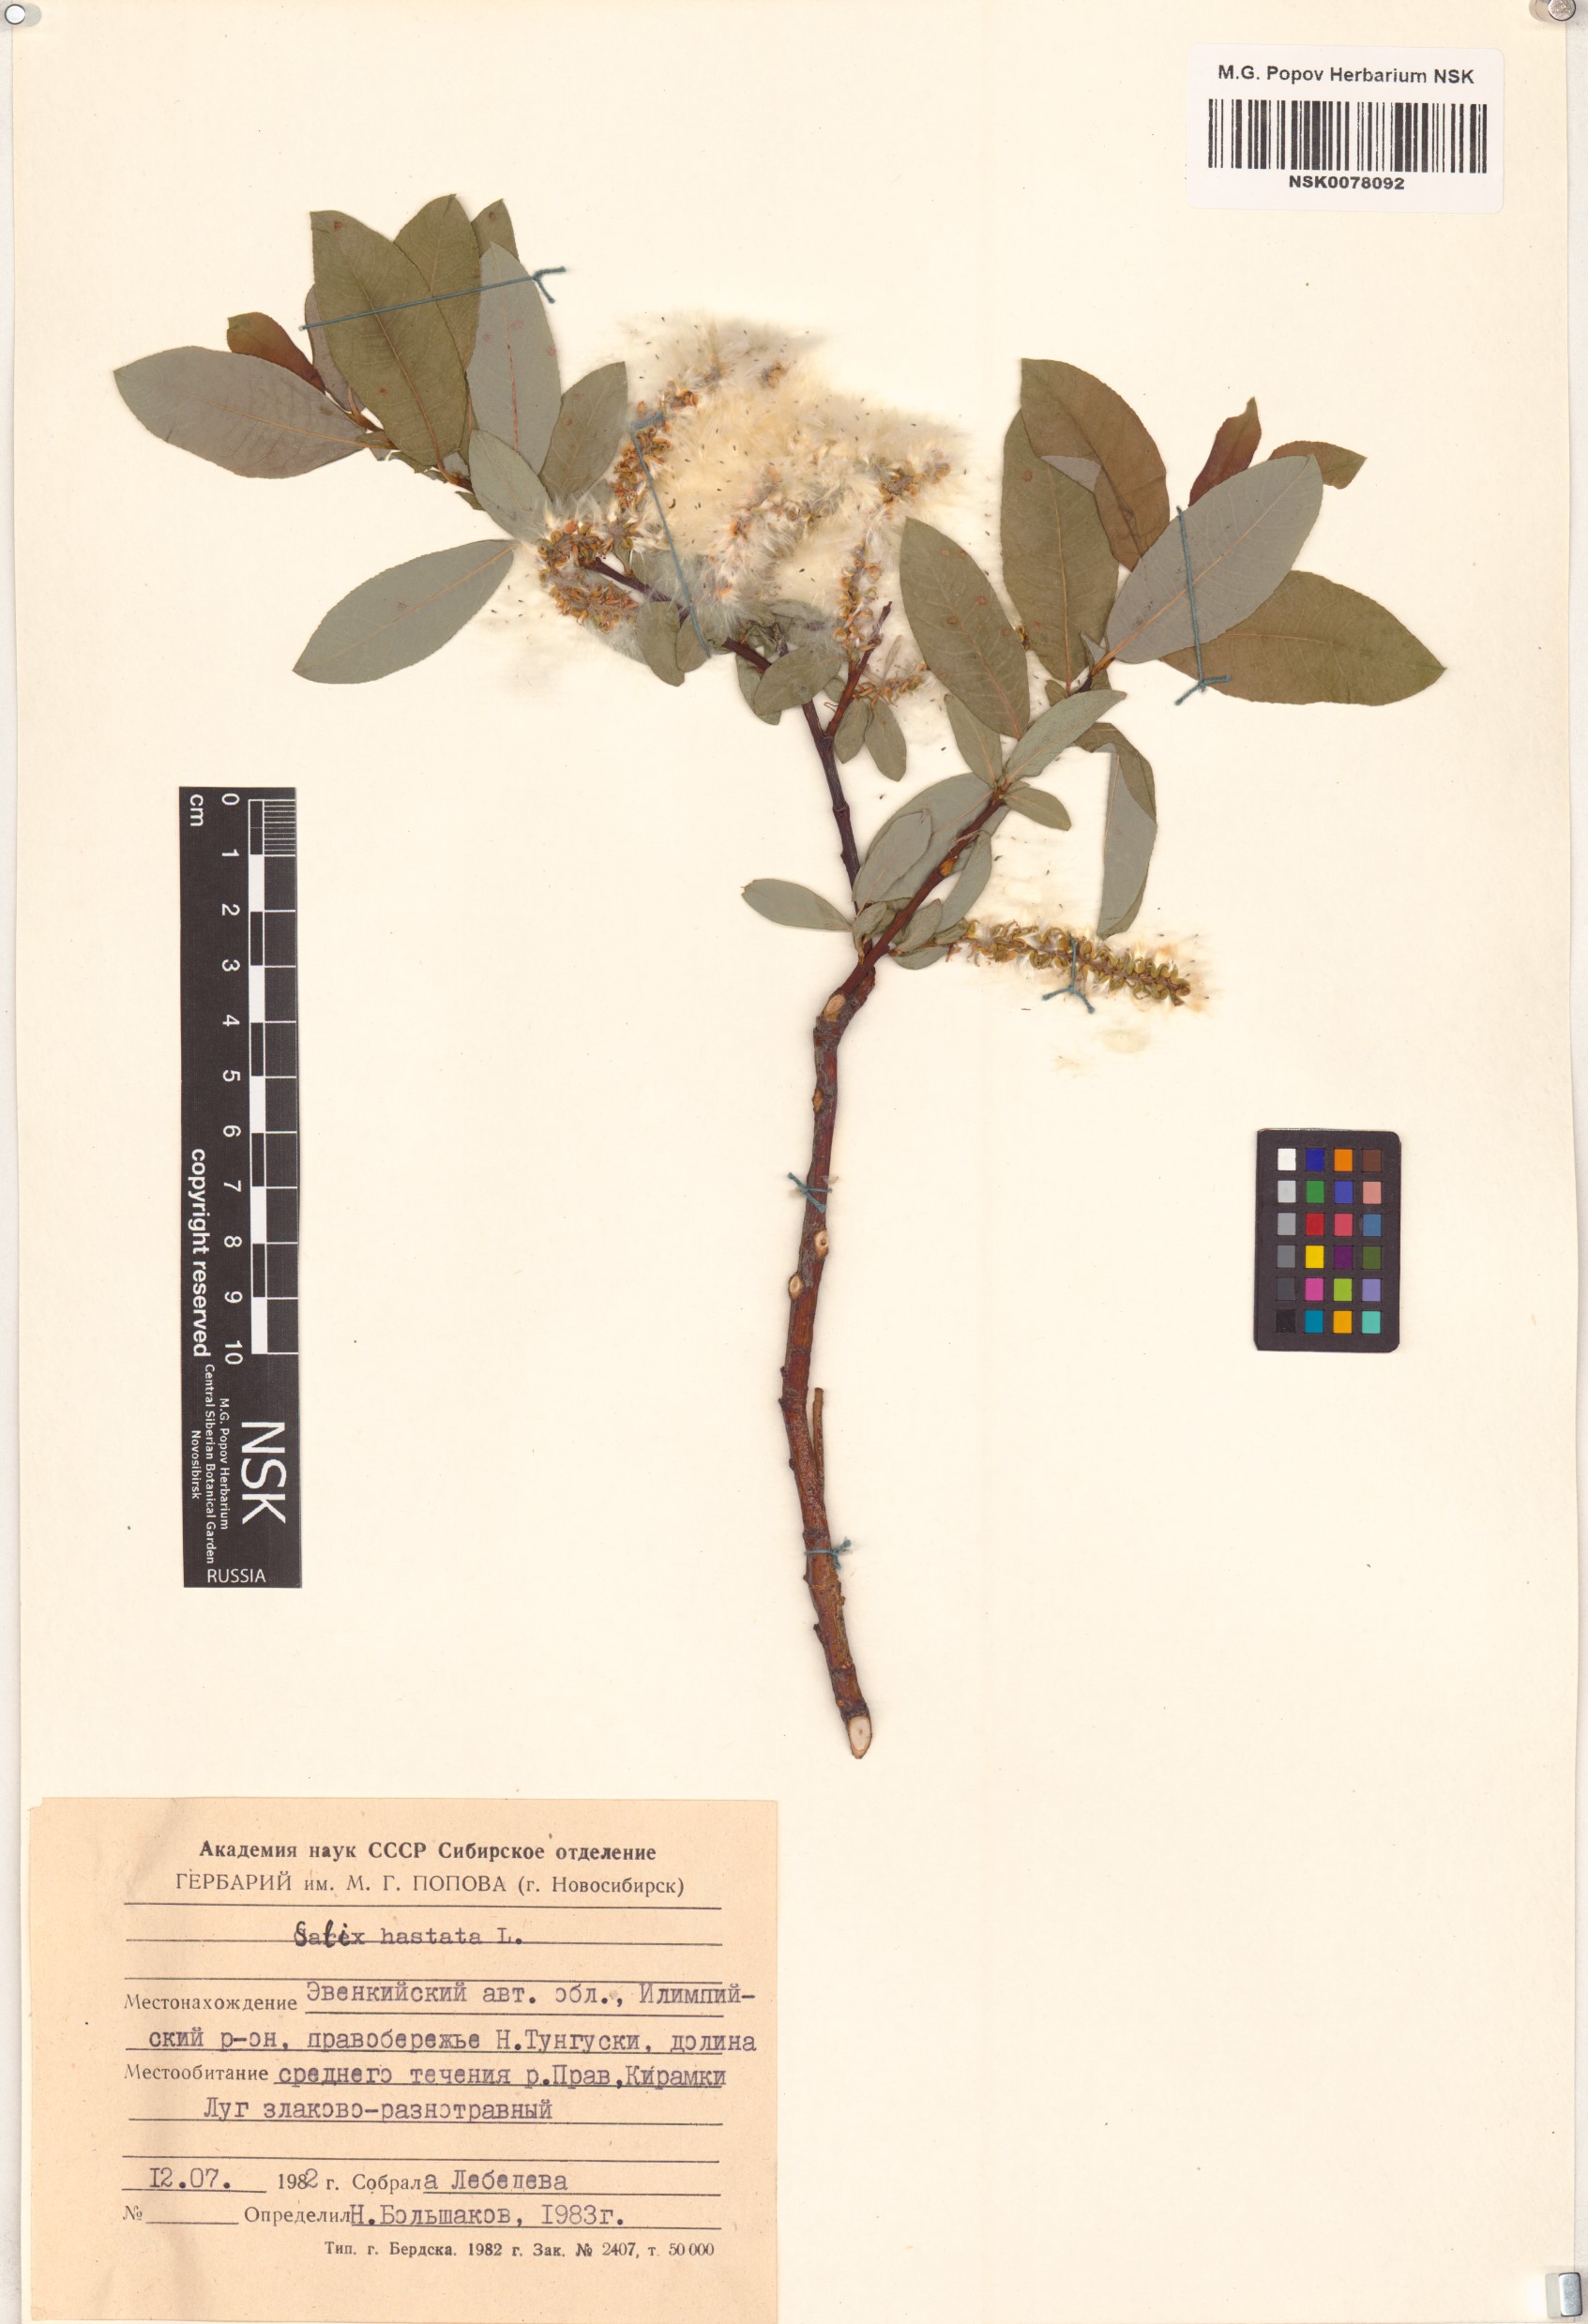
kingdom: Plantae
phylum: Tracheophyta
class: Magnoliopsida
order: Malpighiales
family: Salicaceae
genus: Salix
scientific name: Salix hastata
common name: Halberd willow
